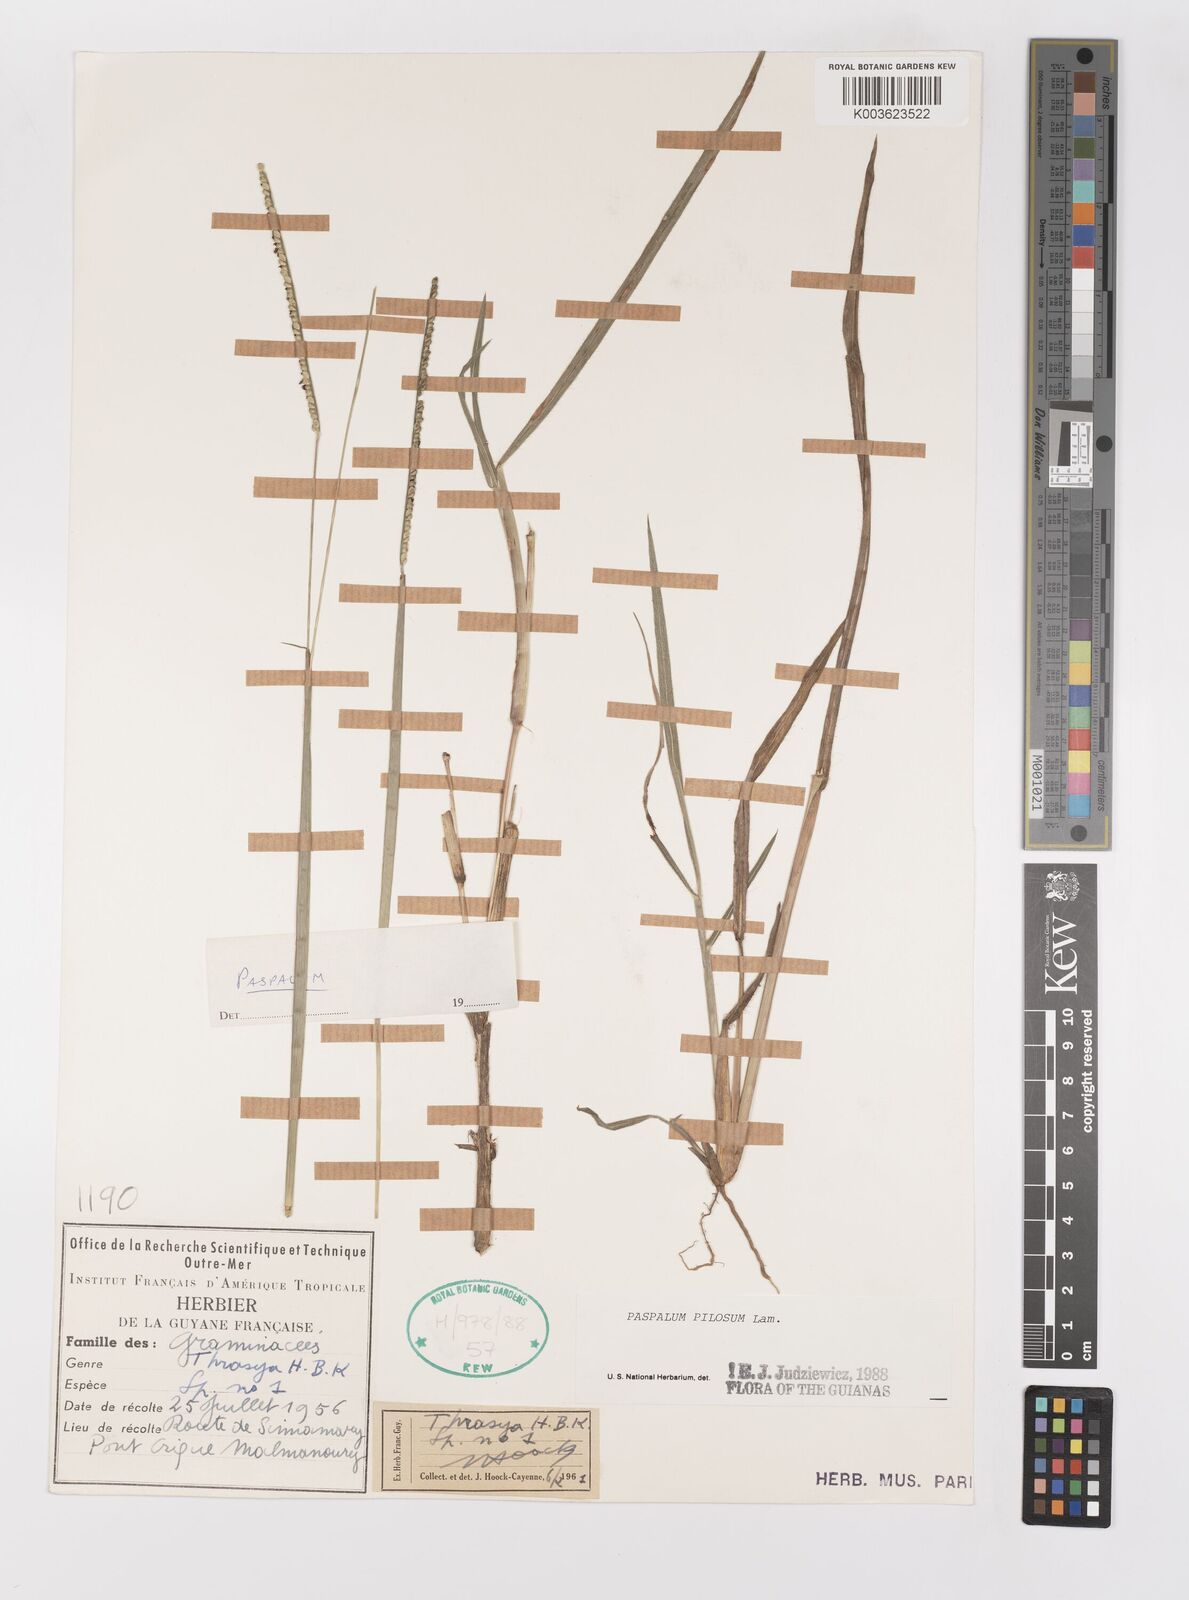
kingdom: Plantae
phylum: Tracheophyta
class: Liliopsida
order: Poales
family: Poaceae
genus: Paspalum
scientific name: Paspalum pilosum
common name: Crowngrass
